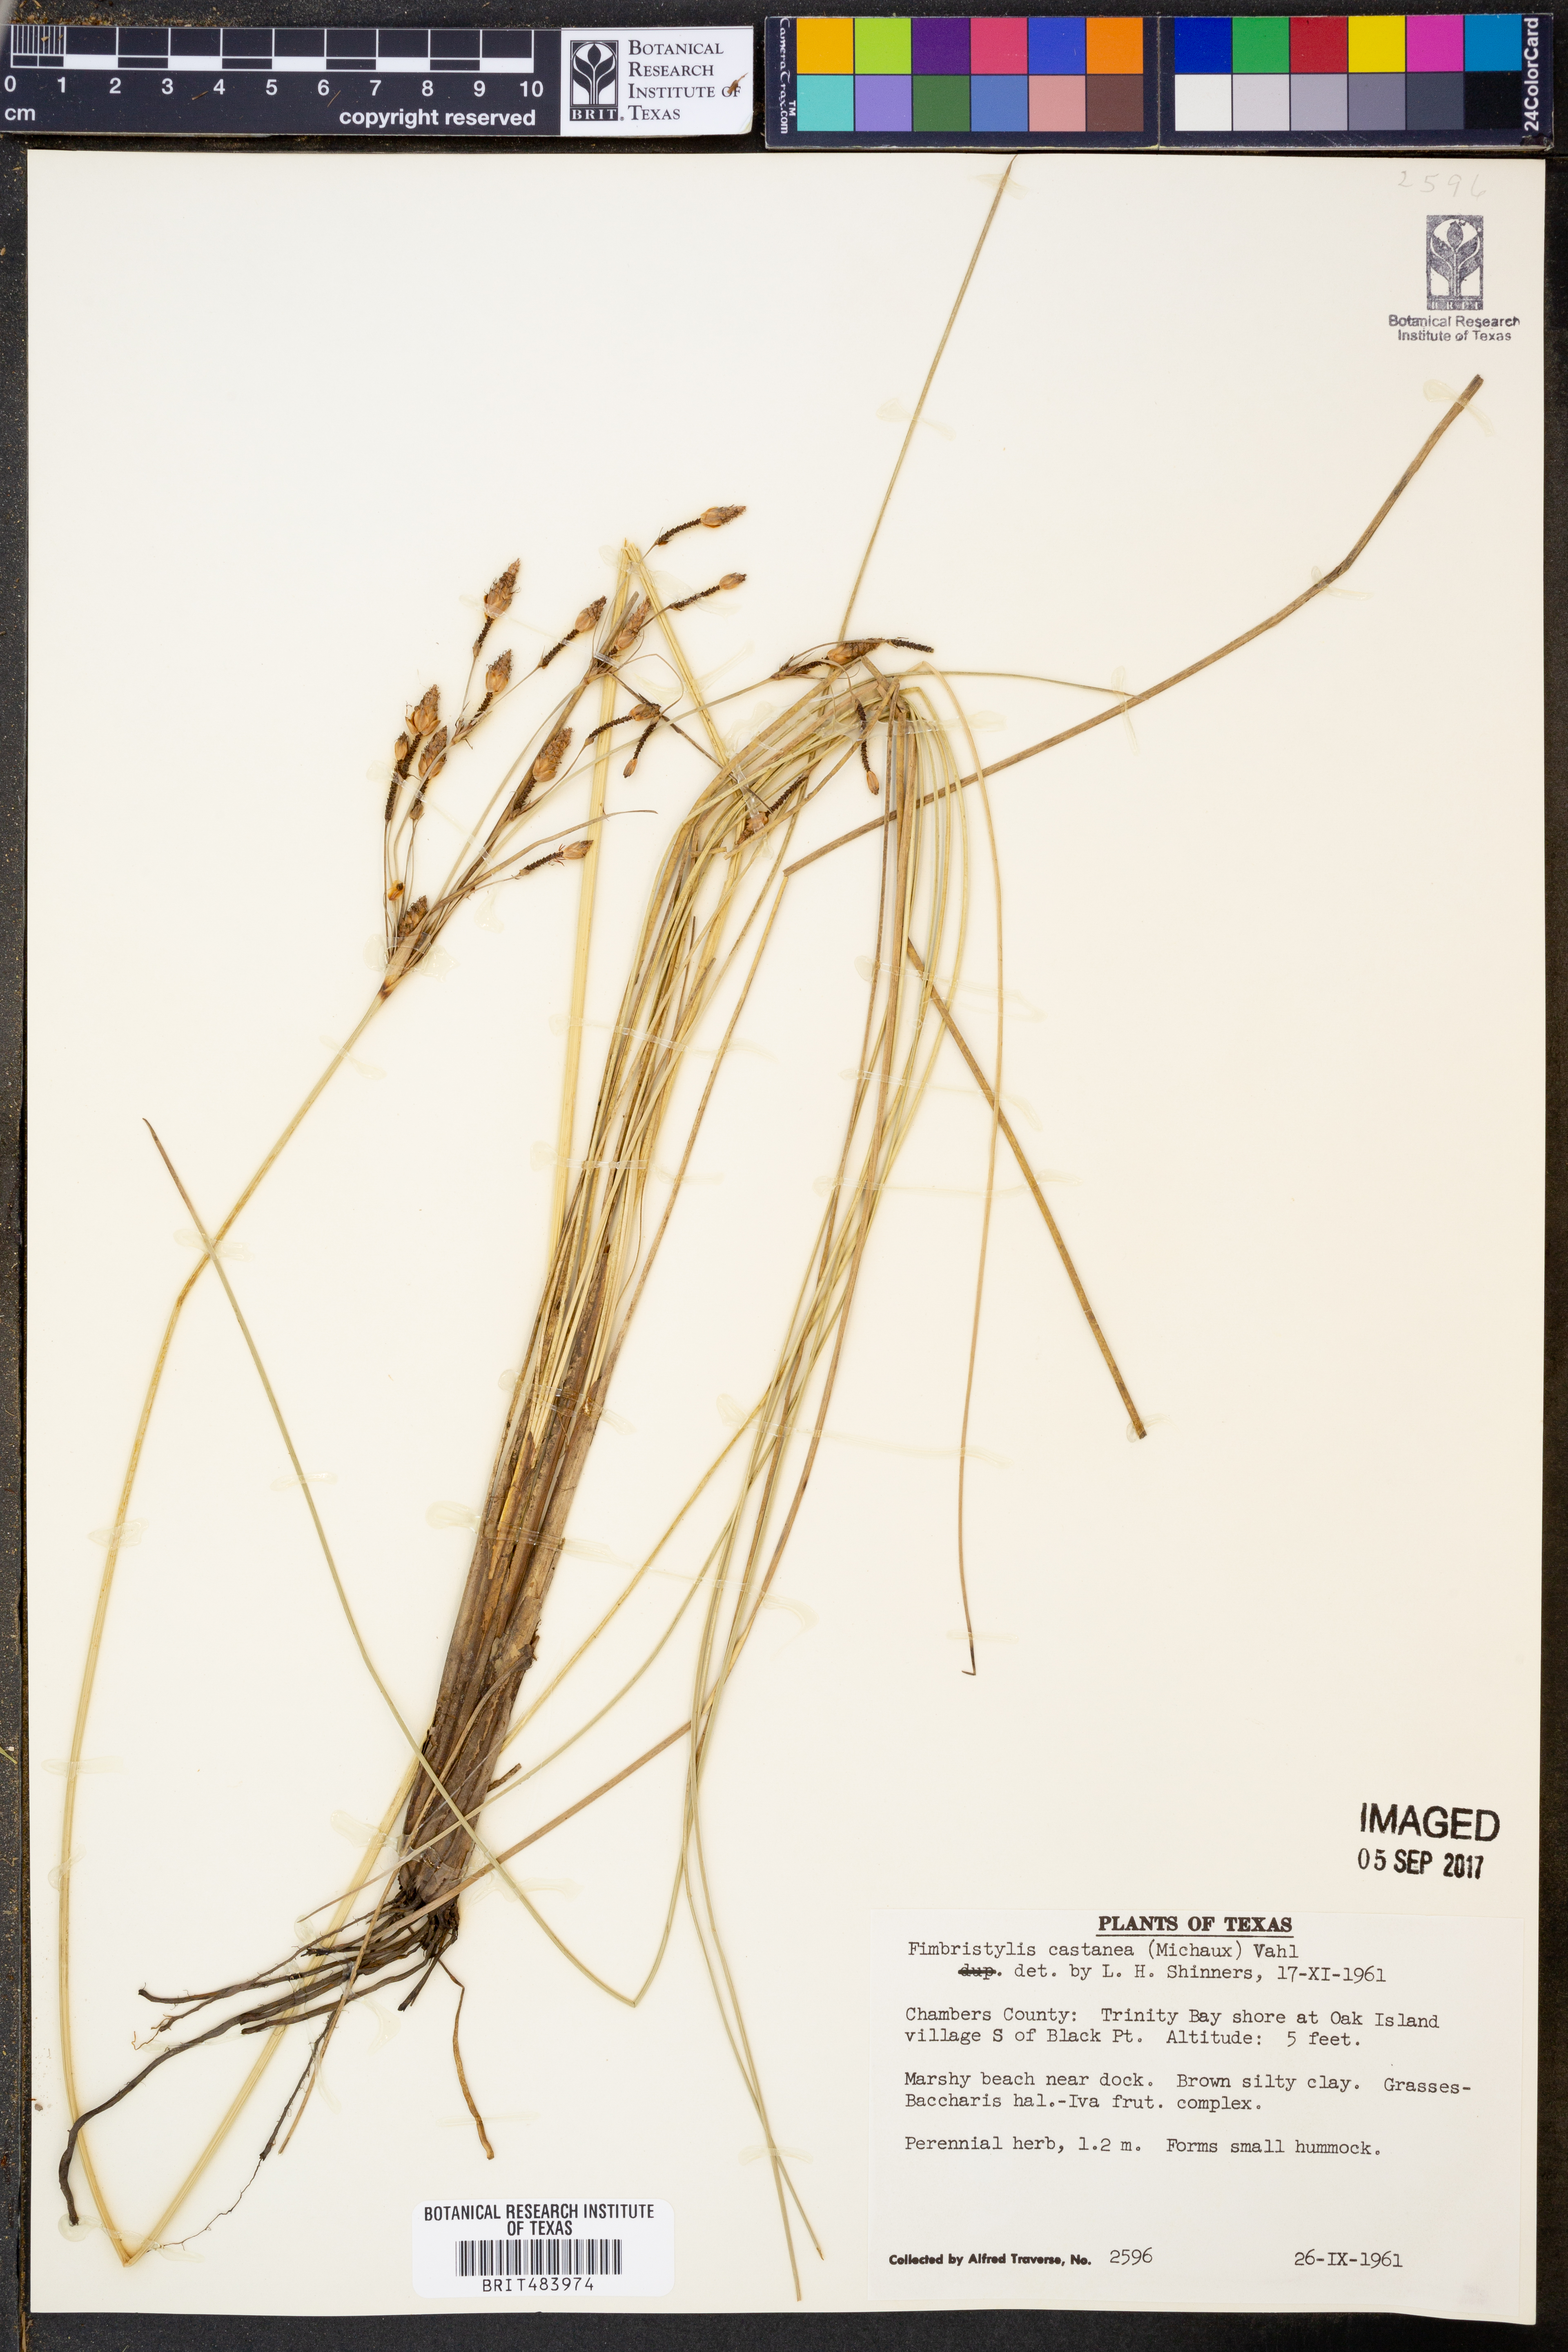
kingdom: Plantae
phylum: Tracheophyta
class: Liliopsida
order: Poales
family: Cyperaceae
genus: Fimbristylis
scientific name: Fimbristylis spadicea
